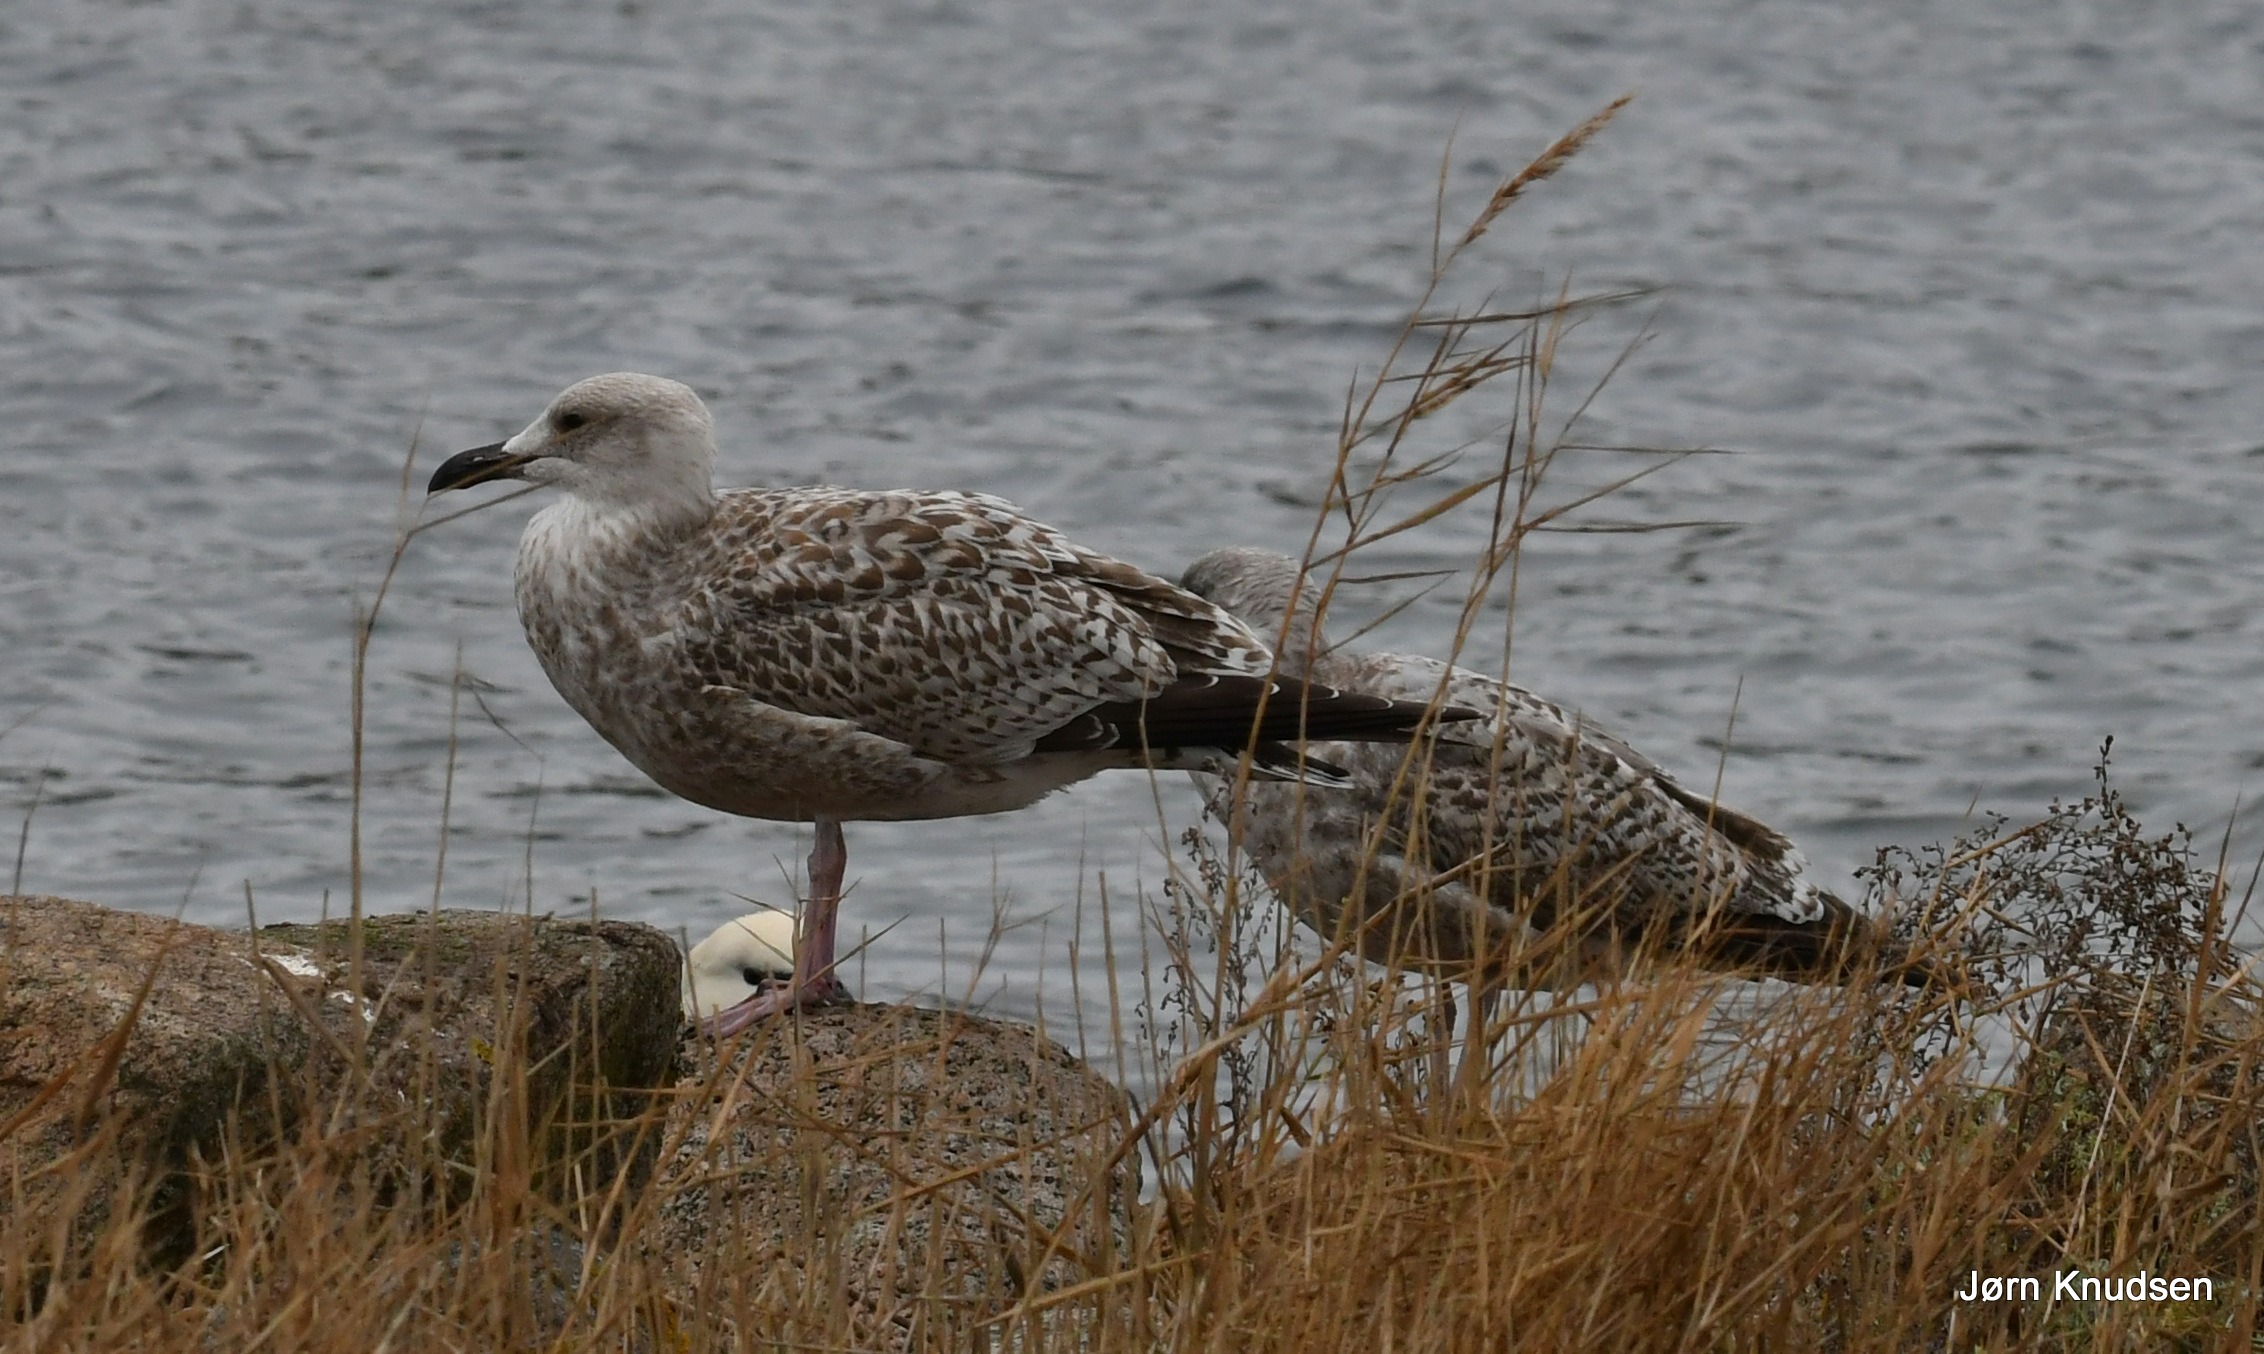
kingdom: Animalia
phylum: Chordata
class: Aves
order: Charadriiformes
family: Laridae
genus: Larus
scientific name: Larus argentatus
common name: Sølvmåge
